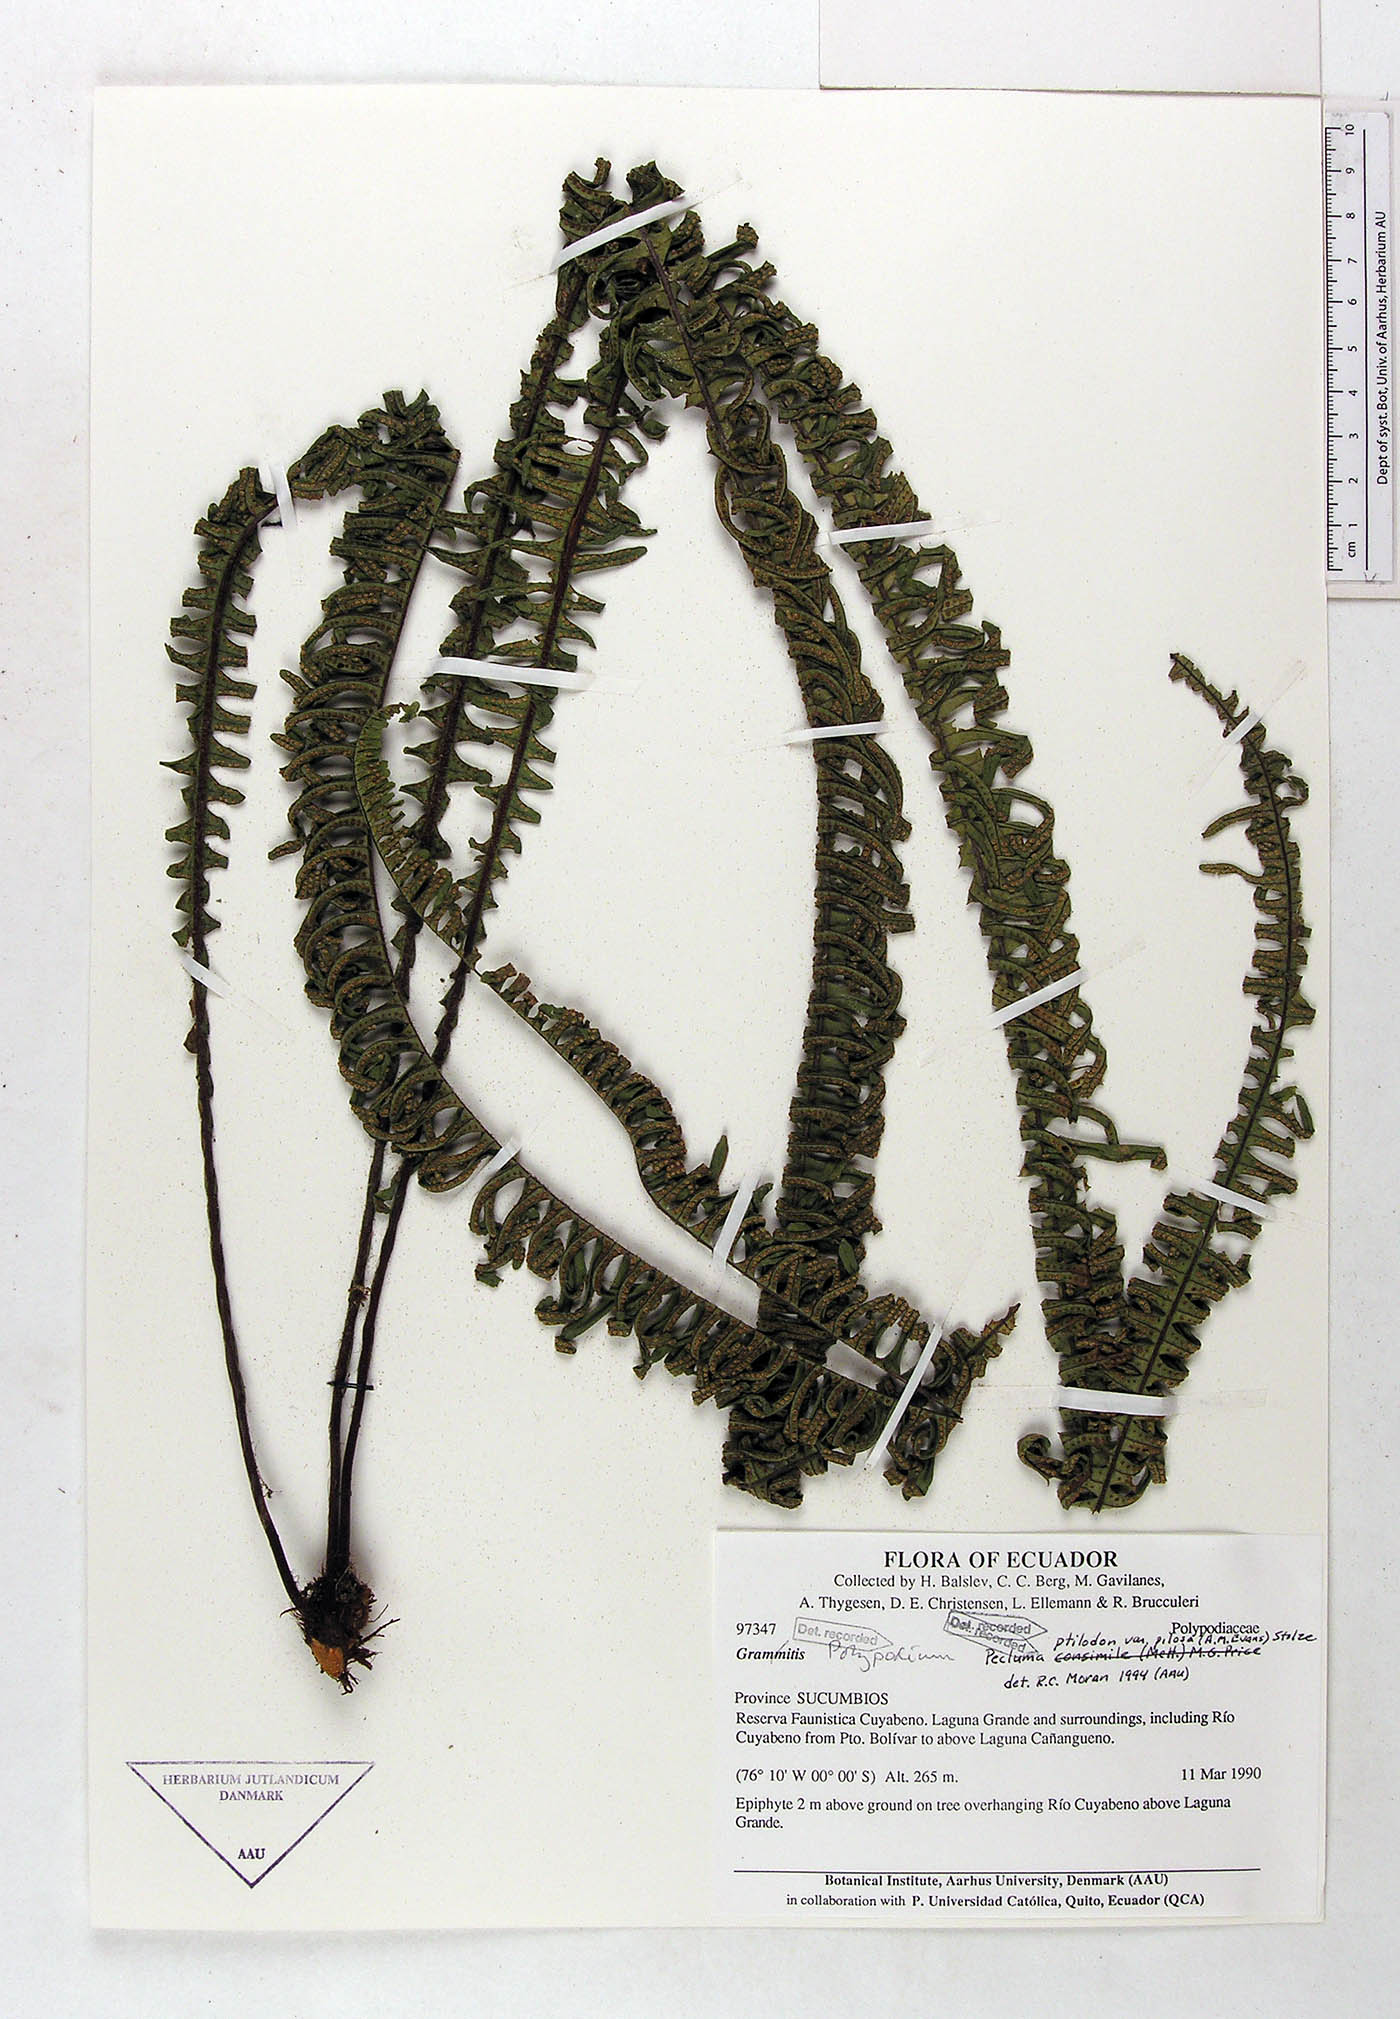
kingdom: Plantae
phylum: Tracheophyta
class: Polypodiopsida
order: Polypodiales
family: Polypodiaceae
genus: Pecluma
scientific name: Pecluma ptilotos
